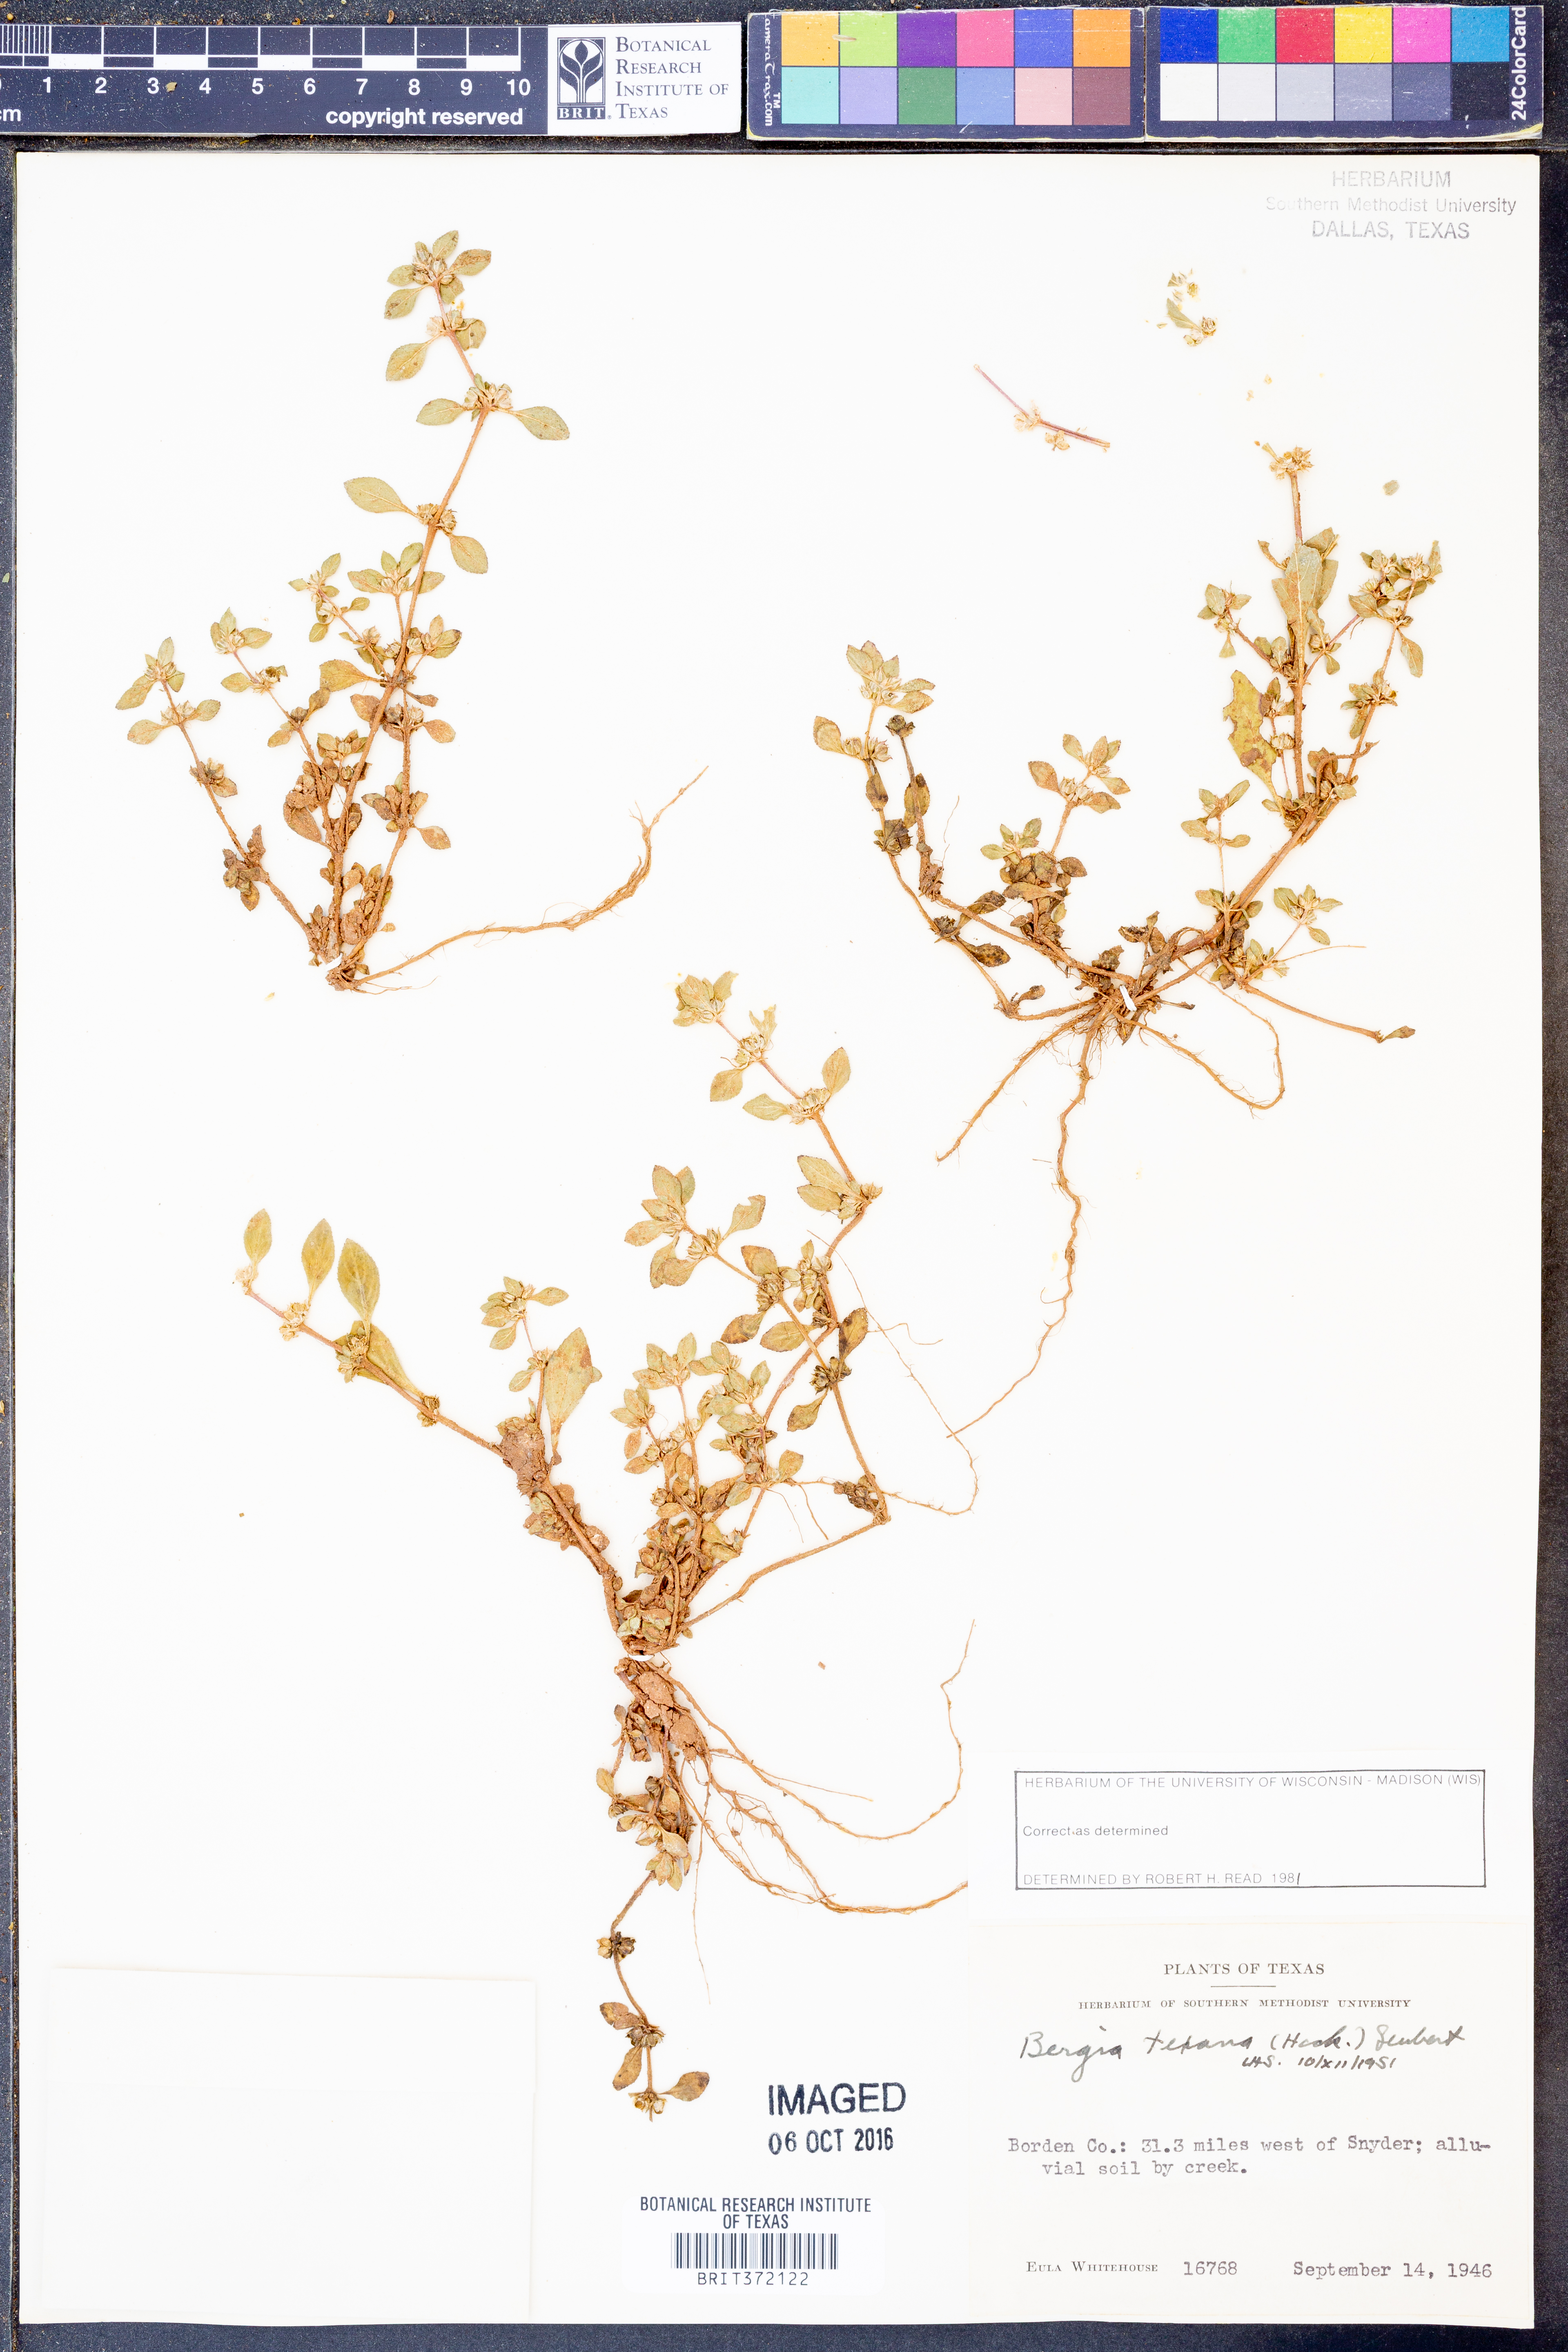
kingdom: Plantae
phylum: Tracheophyta
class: Magnoliopsida
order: Malpighiales
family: Elatinaceae
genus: Bergia
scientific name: Bergia texana
